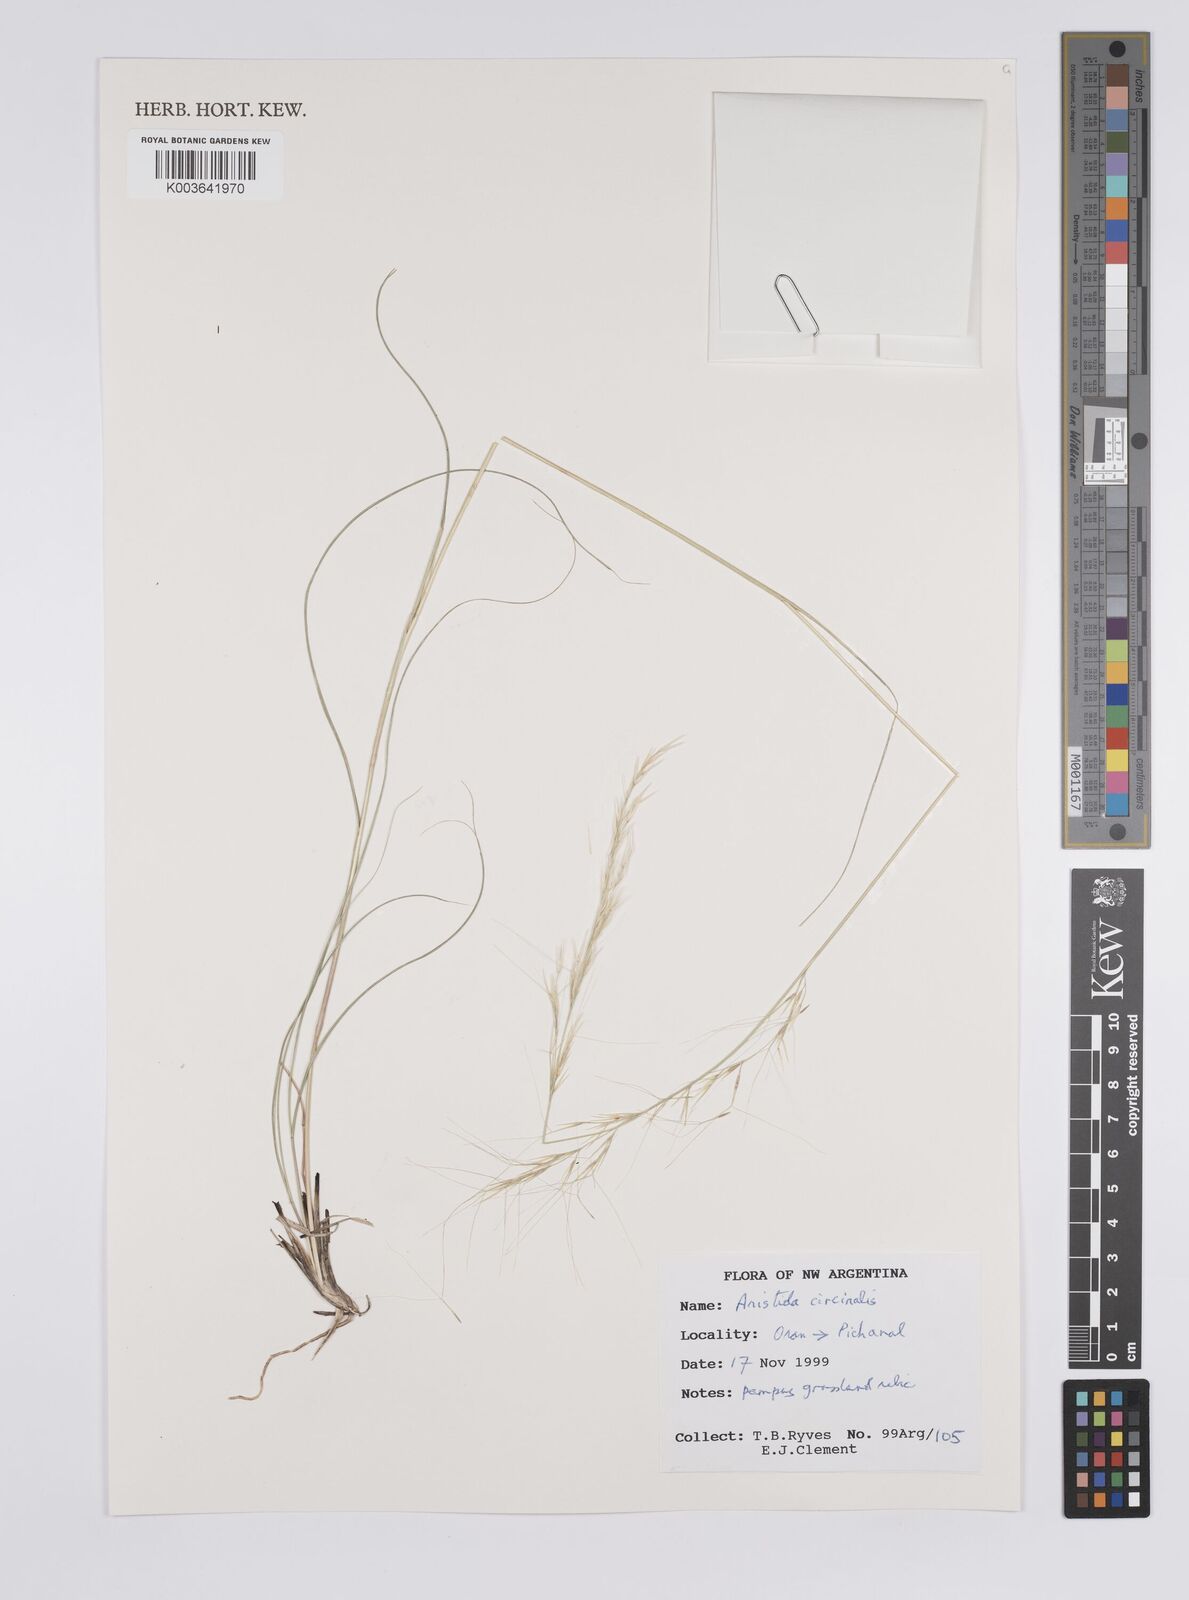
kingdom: Plantae
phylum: Tracheophyta
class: Liliopsida
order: Poales
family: Poaceae
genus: Aristida
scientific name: Aristida circinalis
